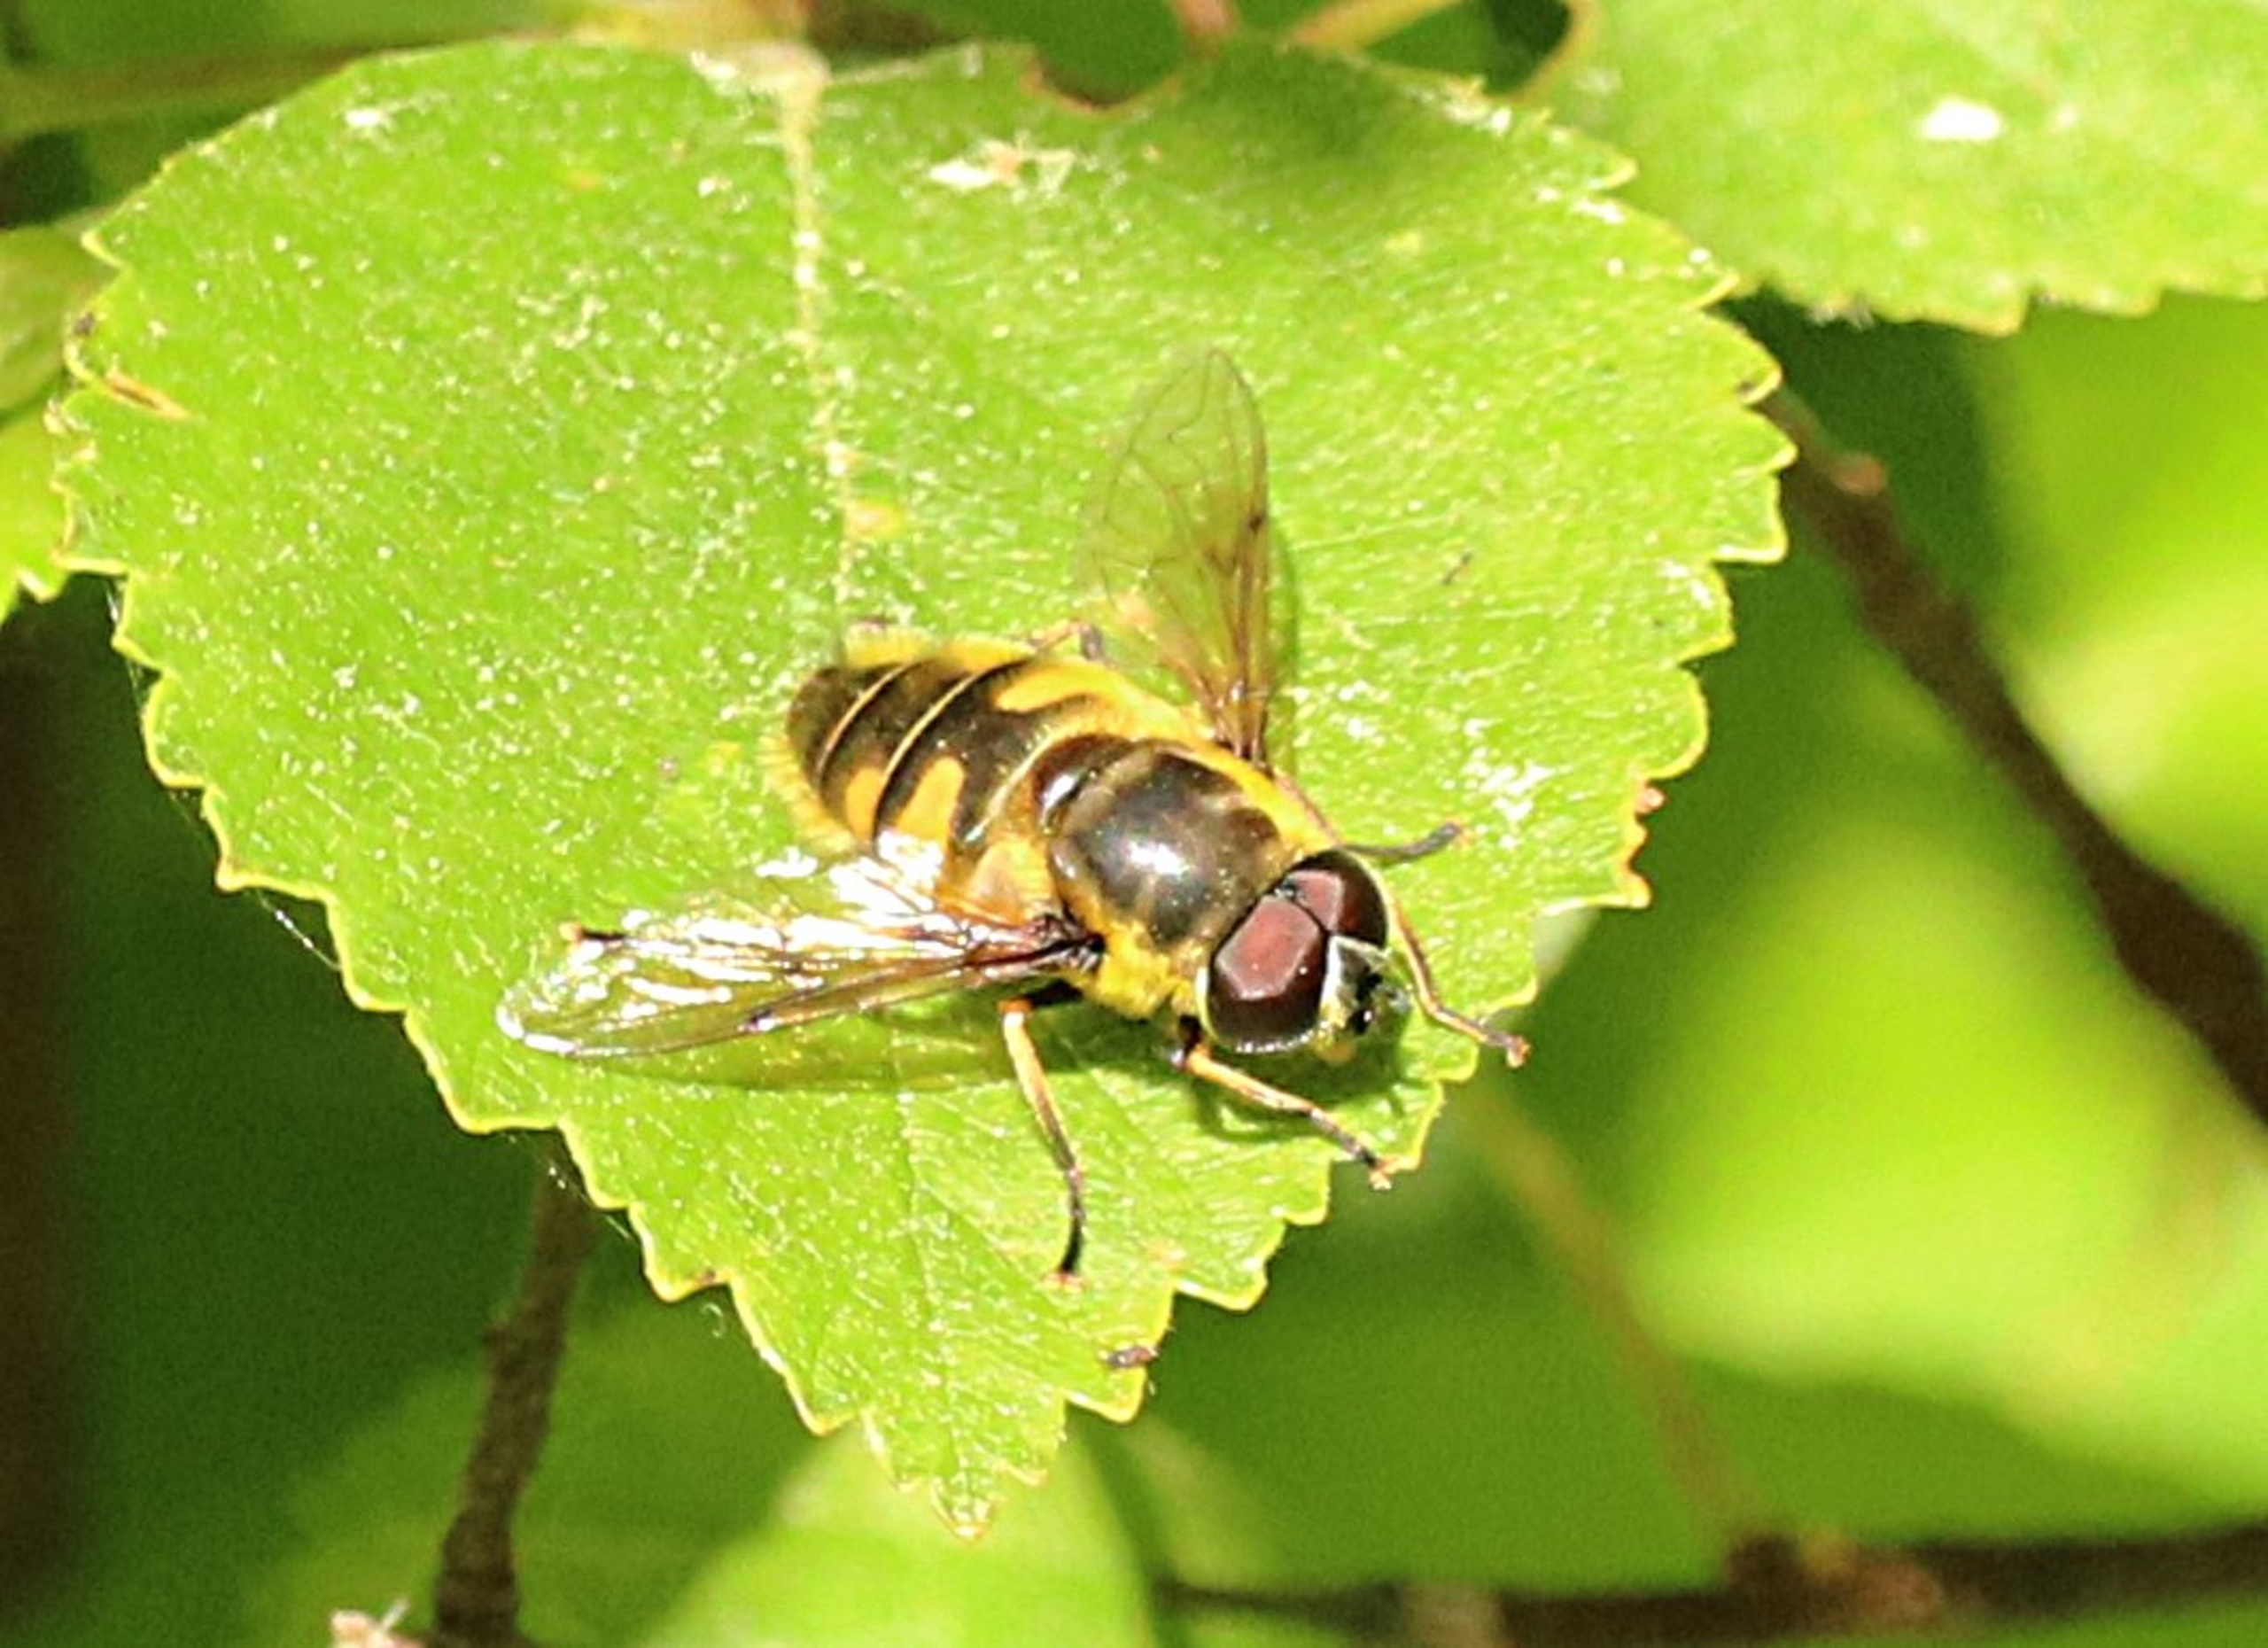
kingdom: Animalia
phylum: Arthropoda
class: Insecta
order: Diptera
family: Syrphidae
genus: Myathropa
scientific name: Myathropa florea
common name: Dødningehoved-svirreflue
